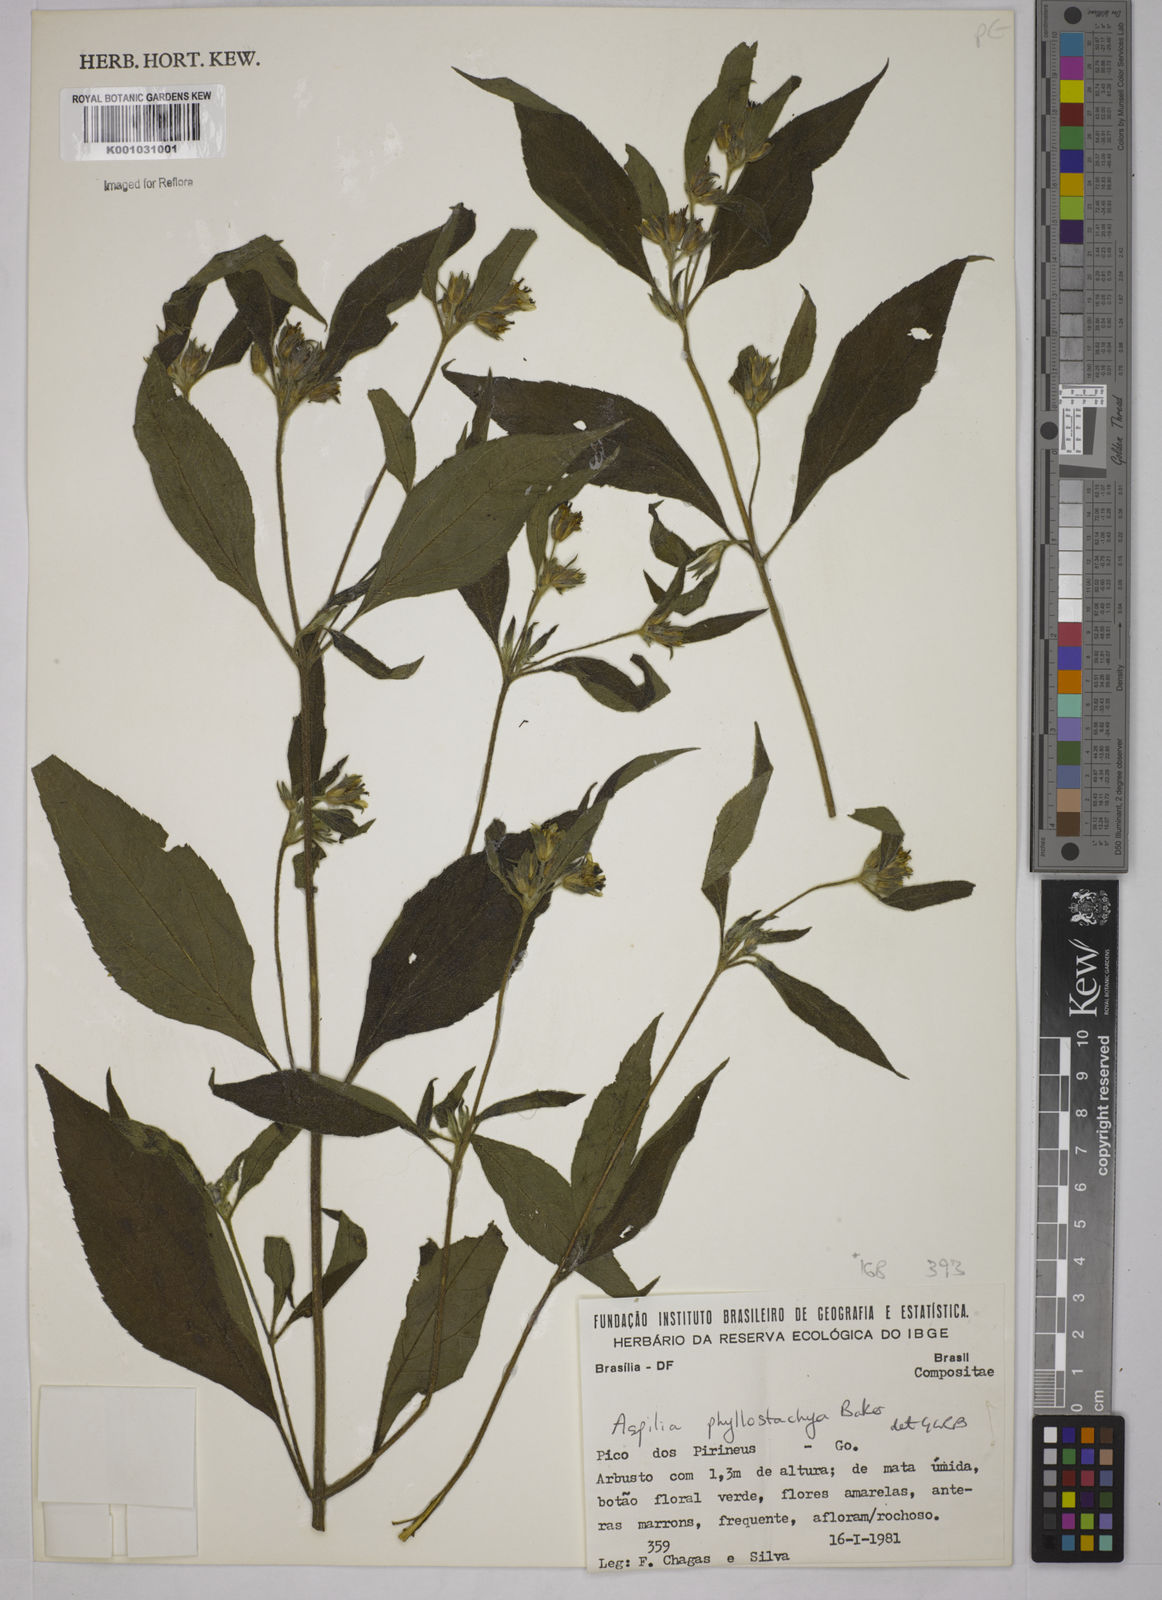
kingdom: Plantae
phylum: Tracheophyta
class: Magnoliopsida
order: Asterales
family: Asteraceae
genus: Wedelia
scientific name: Wedelia phyllostachya
